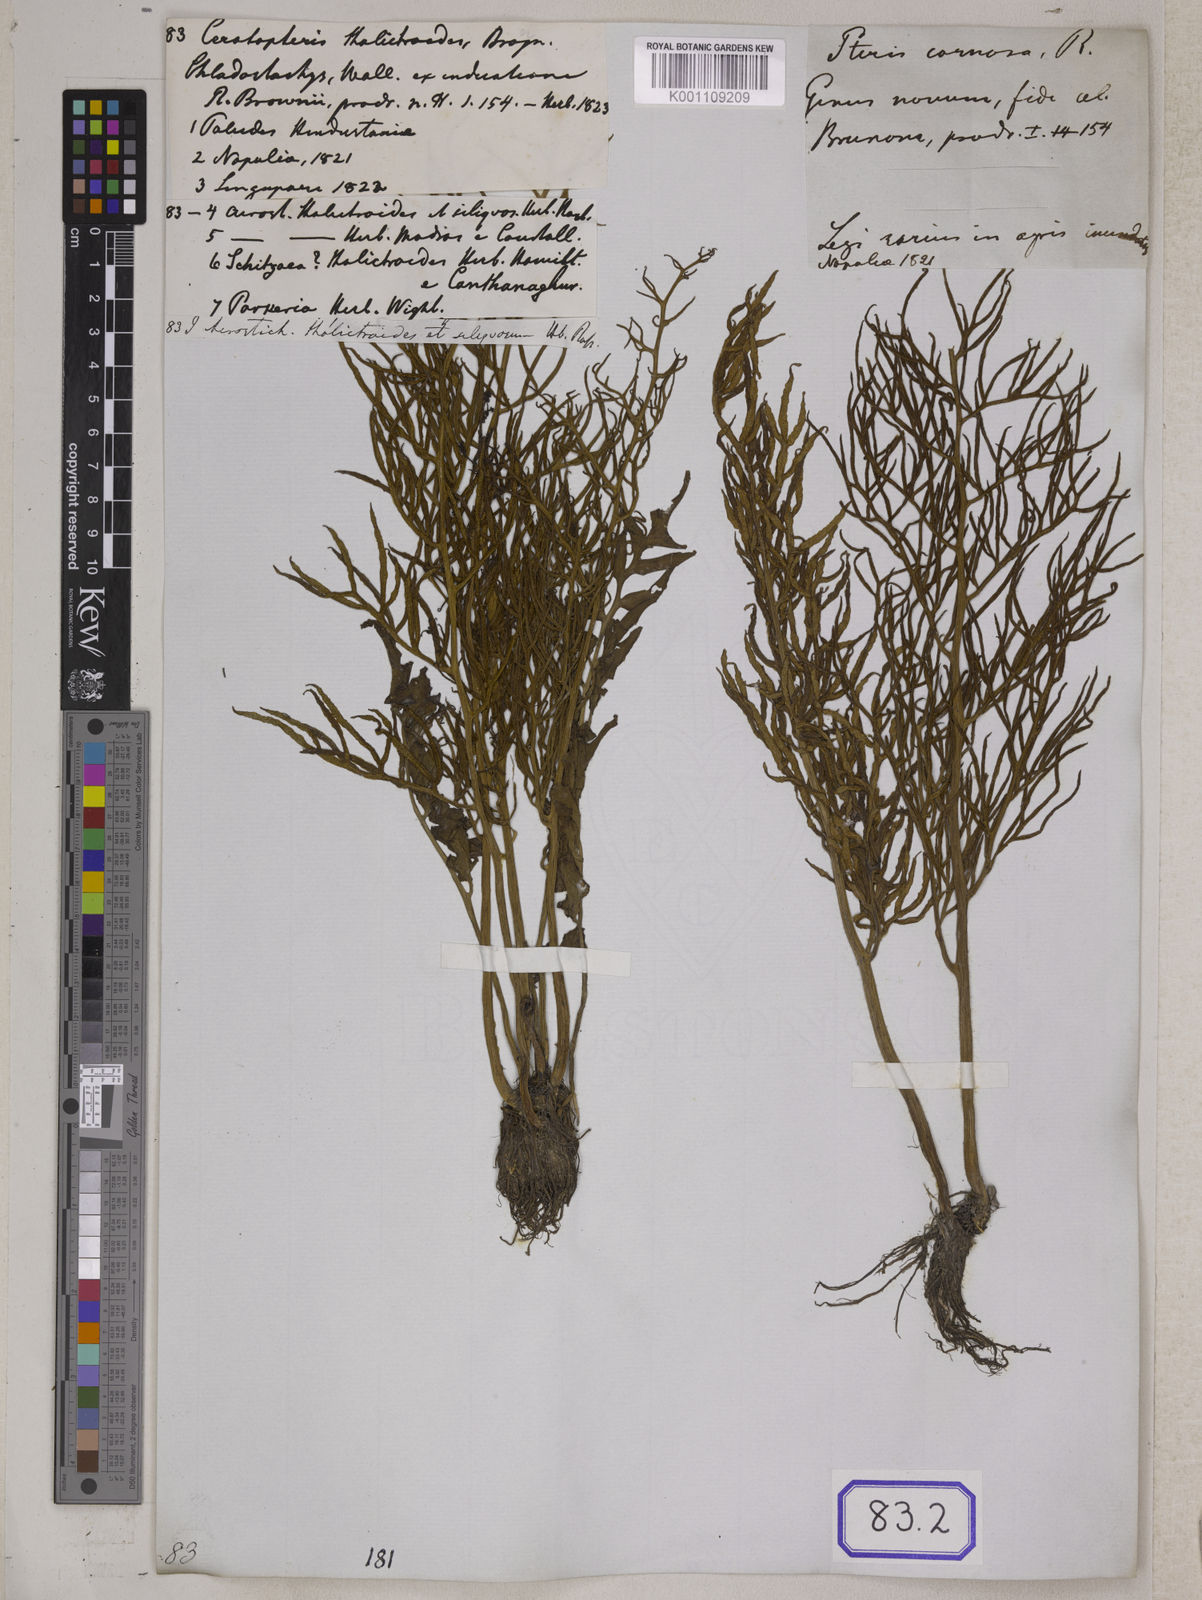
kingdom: Plantae
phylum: Tracheophyta
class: Polypodiopsida
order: Polypodiales
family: Pteridaceae
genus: Ceratopteris
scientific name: Ceratopteris thalictroides
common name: Water fern
